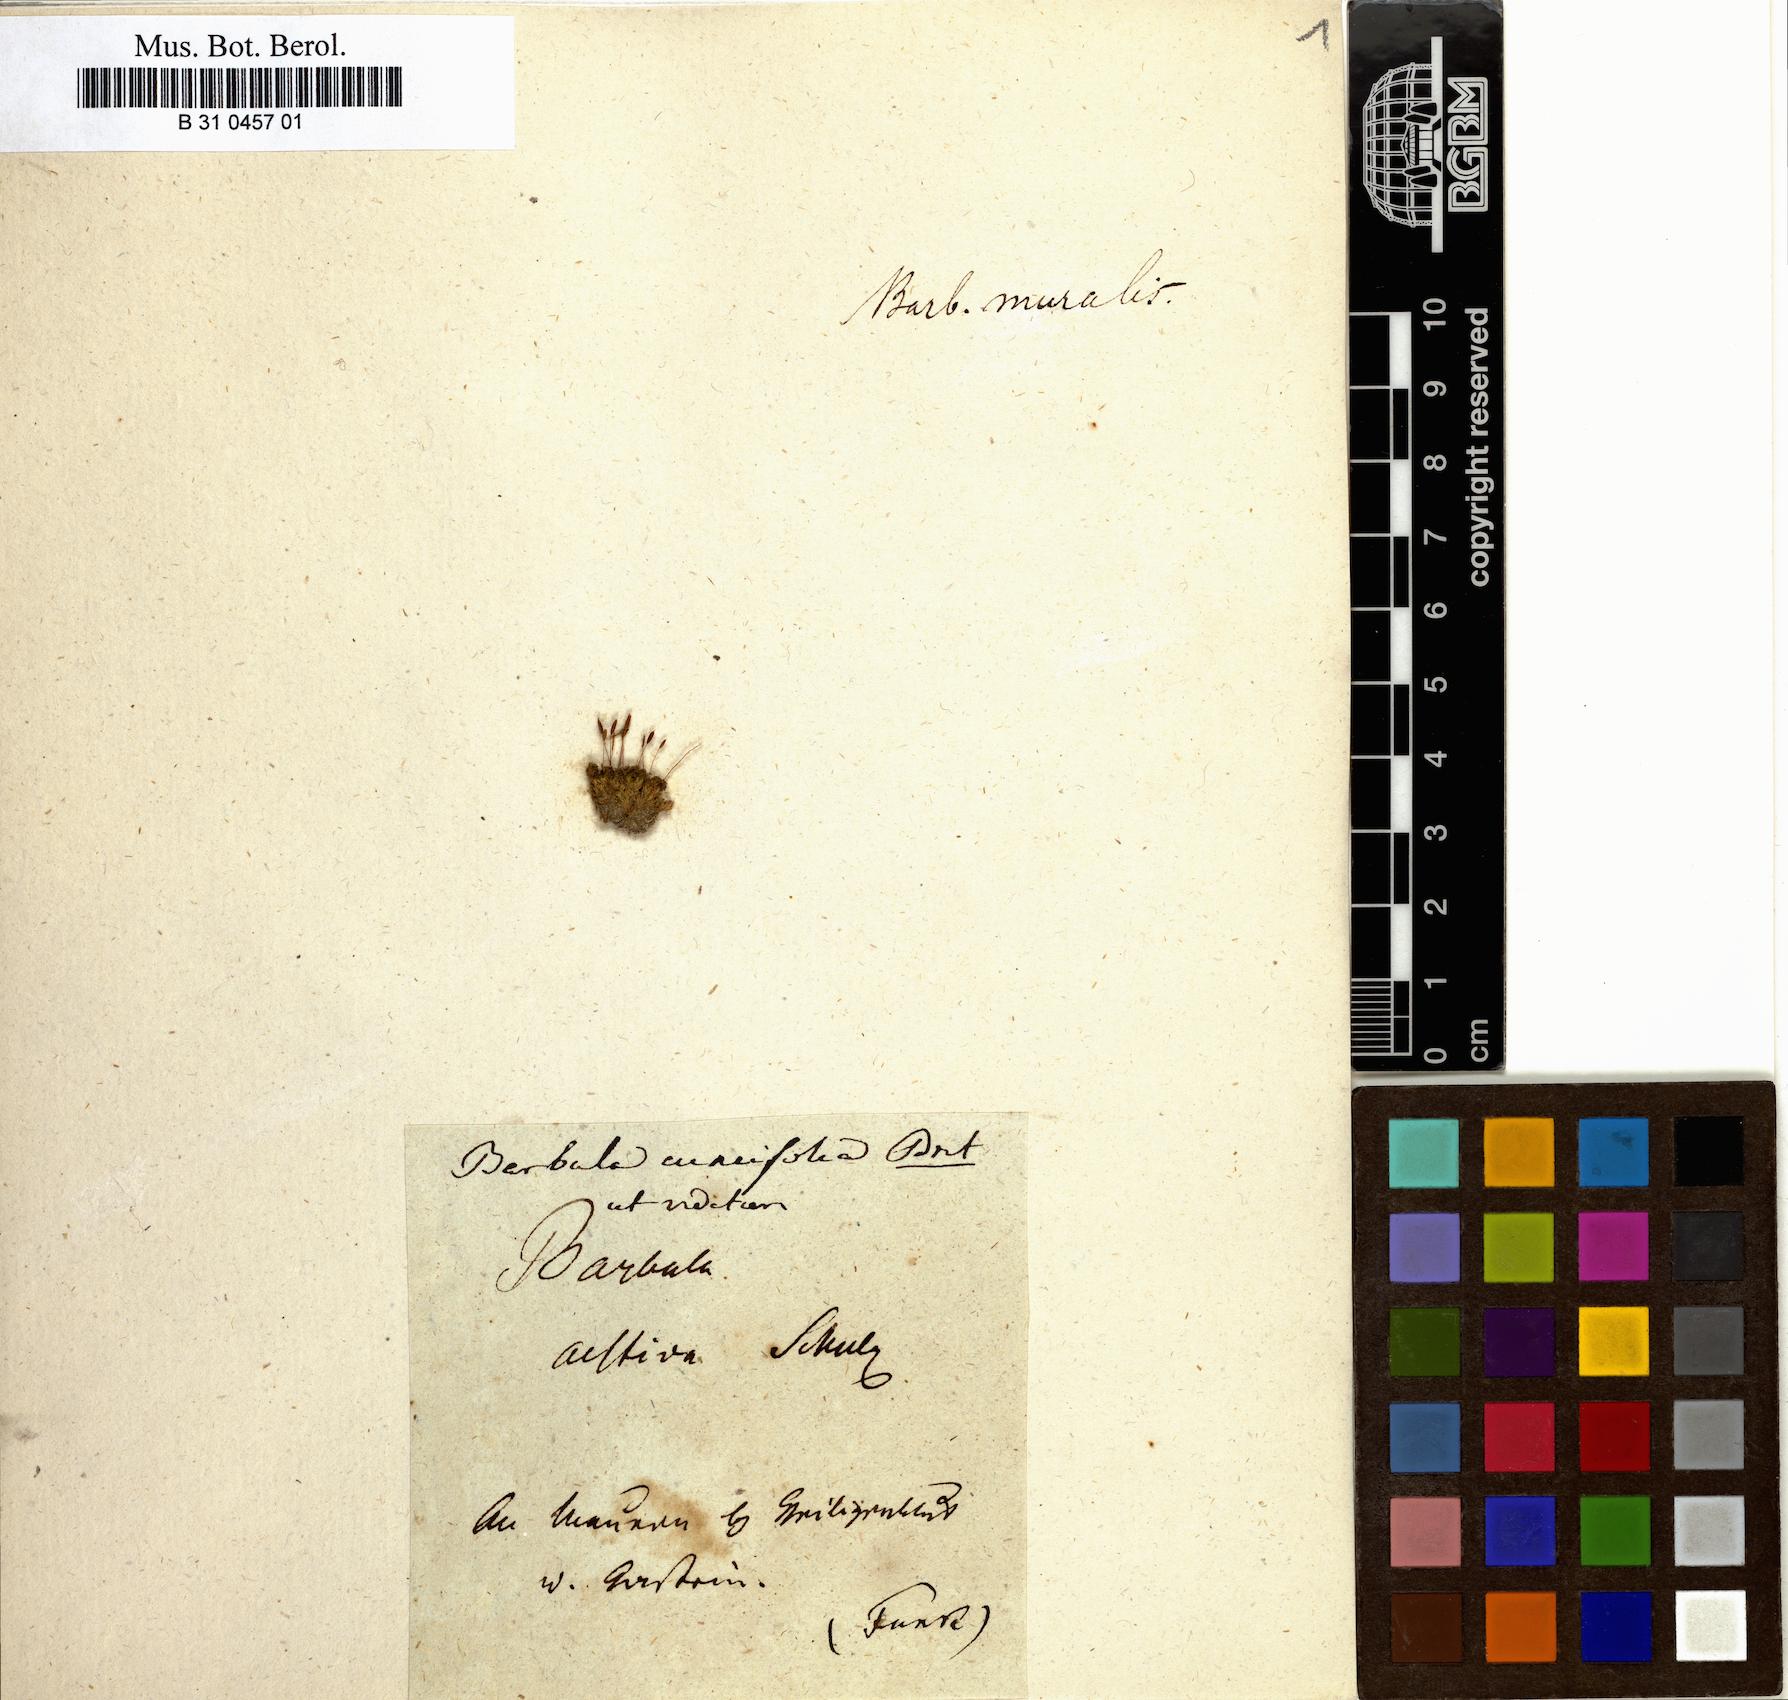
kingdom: Plantae
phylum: Bryophyta
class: Bryopsida
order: Pottiales
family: Pottiaceae
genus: Tortula
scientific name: Tortula cuneifolia
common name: Wedge-leaved screw-moss
